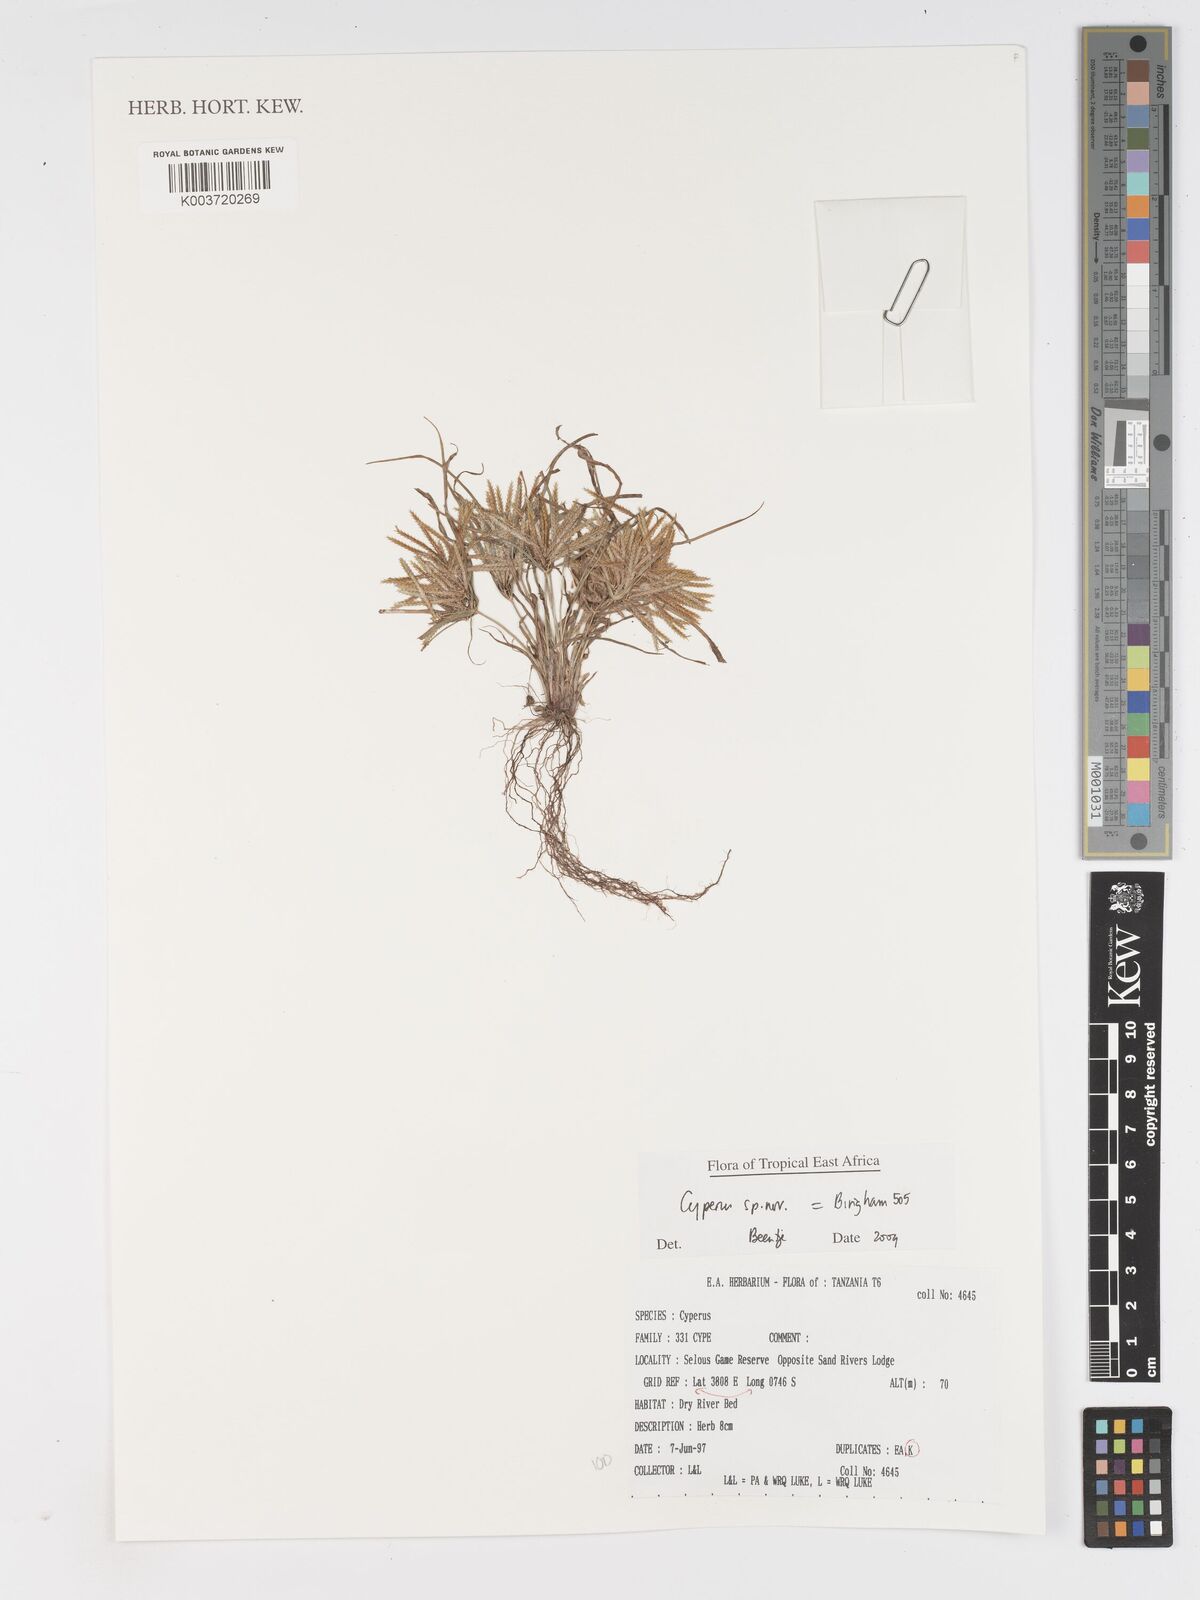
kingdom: Plantae
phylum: Tracheophyta
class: Liliopsida
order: Poales
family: Cyperaceae
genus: Cyperus
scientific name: Cyperus
